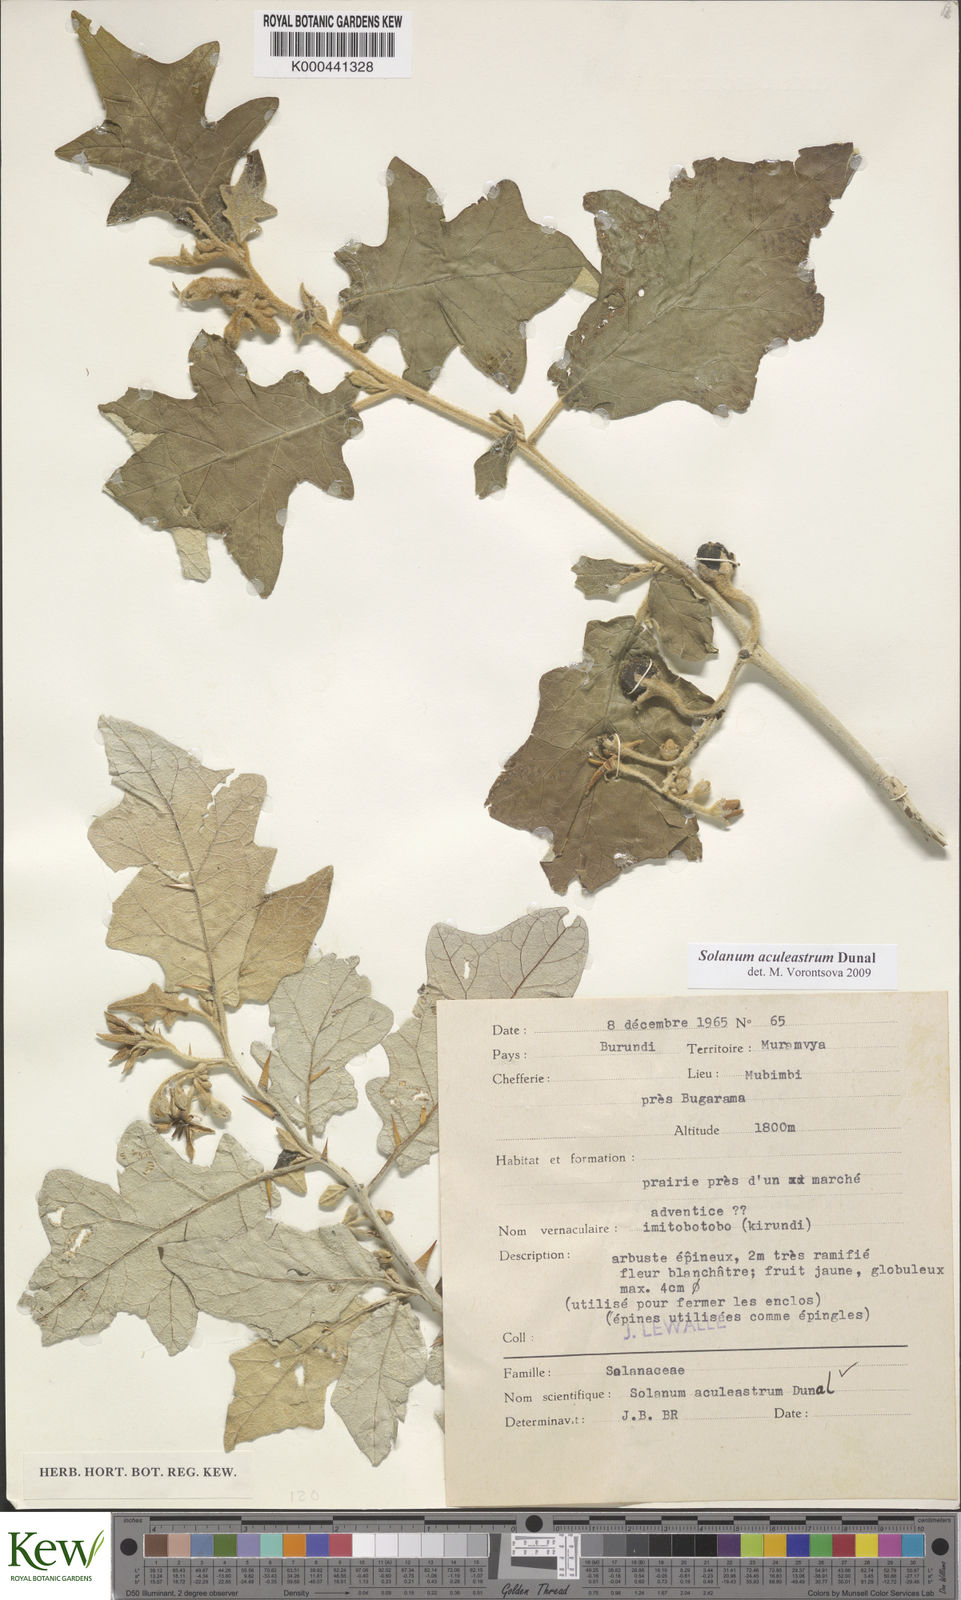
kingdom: Plantae
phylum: Tracheophyta
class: Magnoliopsida
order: Solanales
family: Solanaceae
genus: Solanum
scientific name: Solanum aculeastrum
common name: Goat bitter-apple
